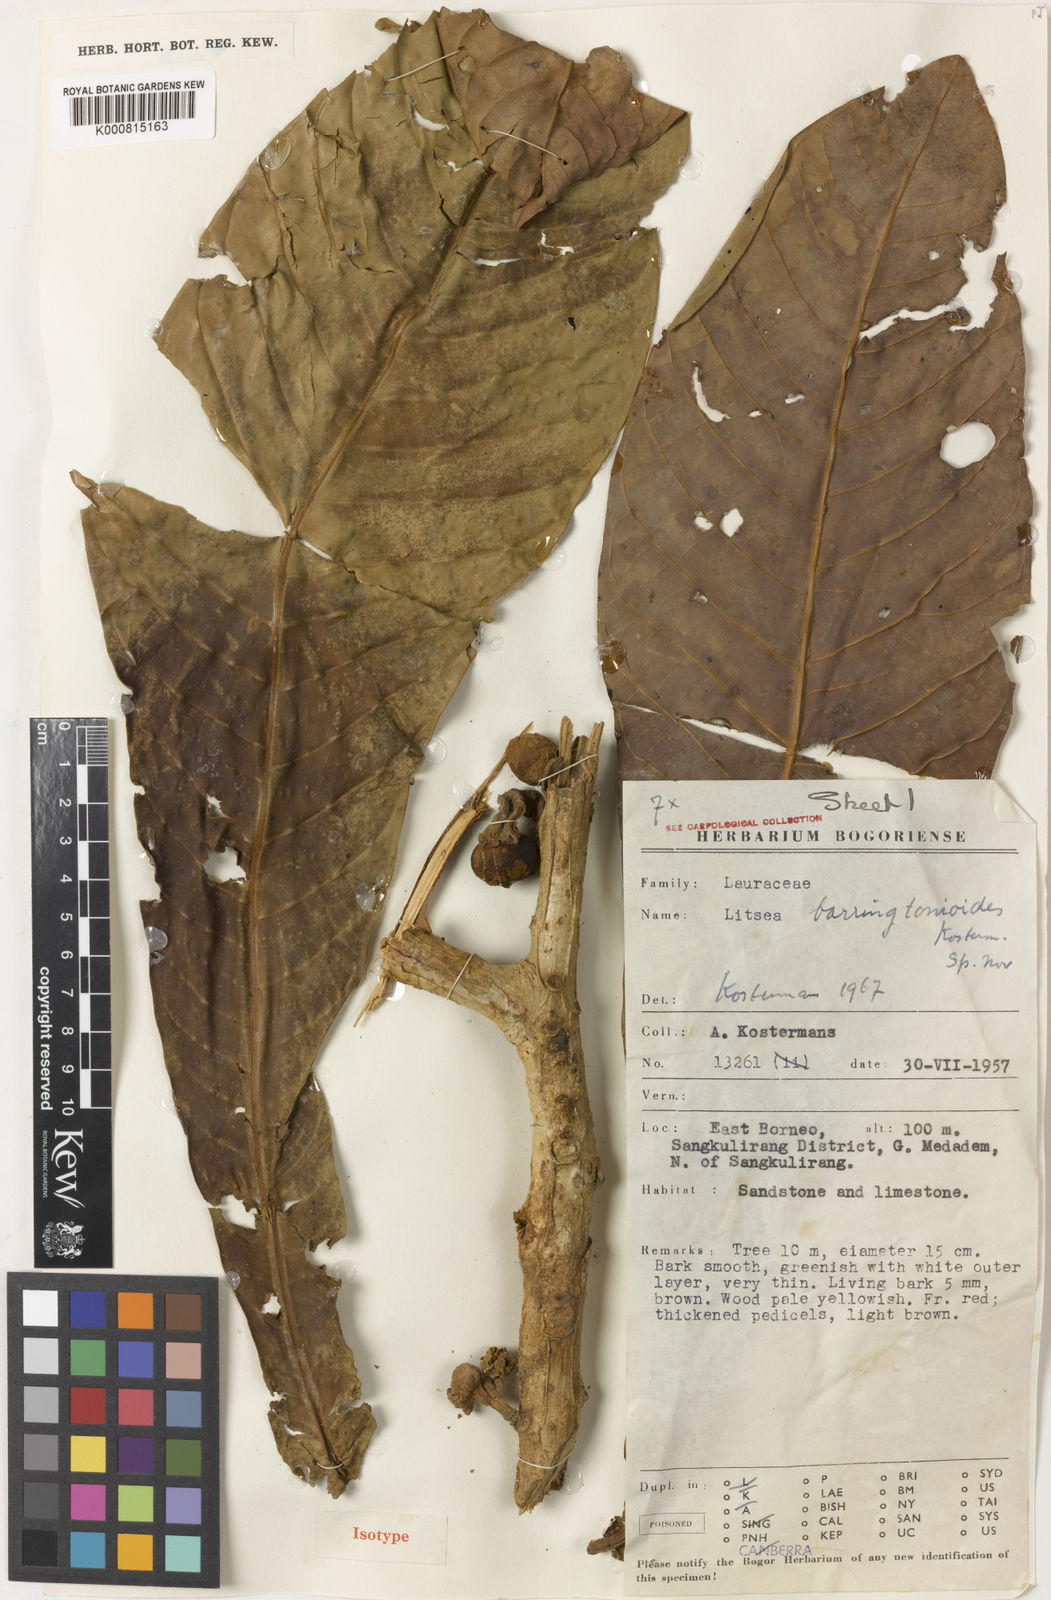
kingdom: Plantae
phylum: Tracheophyta
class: Magnoliopsida
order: Laurales
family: Lauraceae
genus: Litsea
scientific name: Litsea barringtonioides
